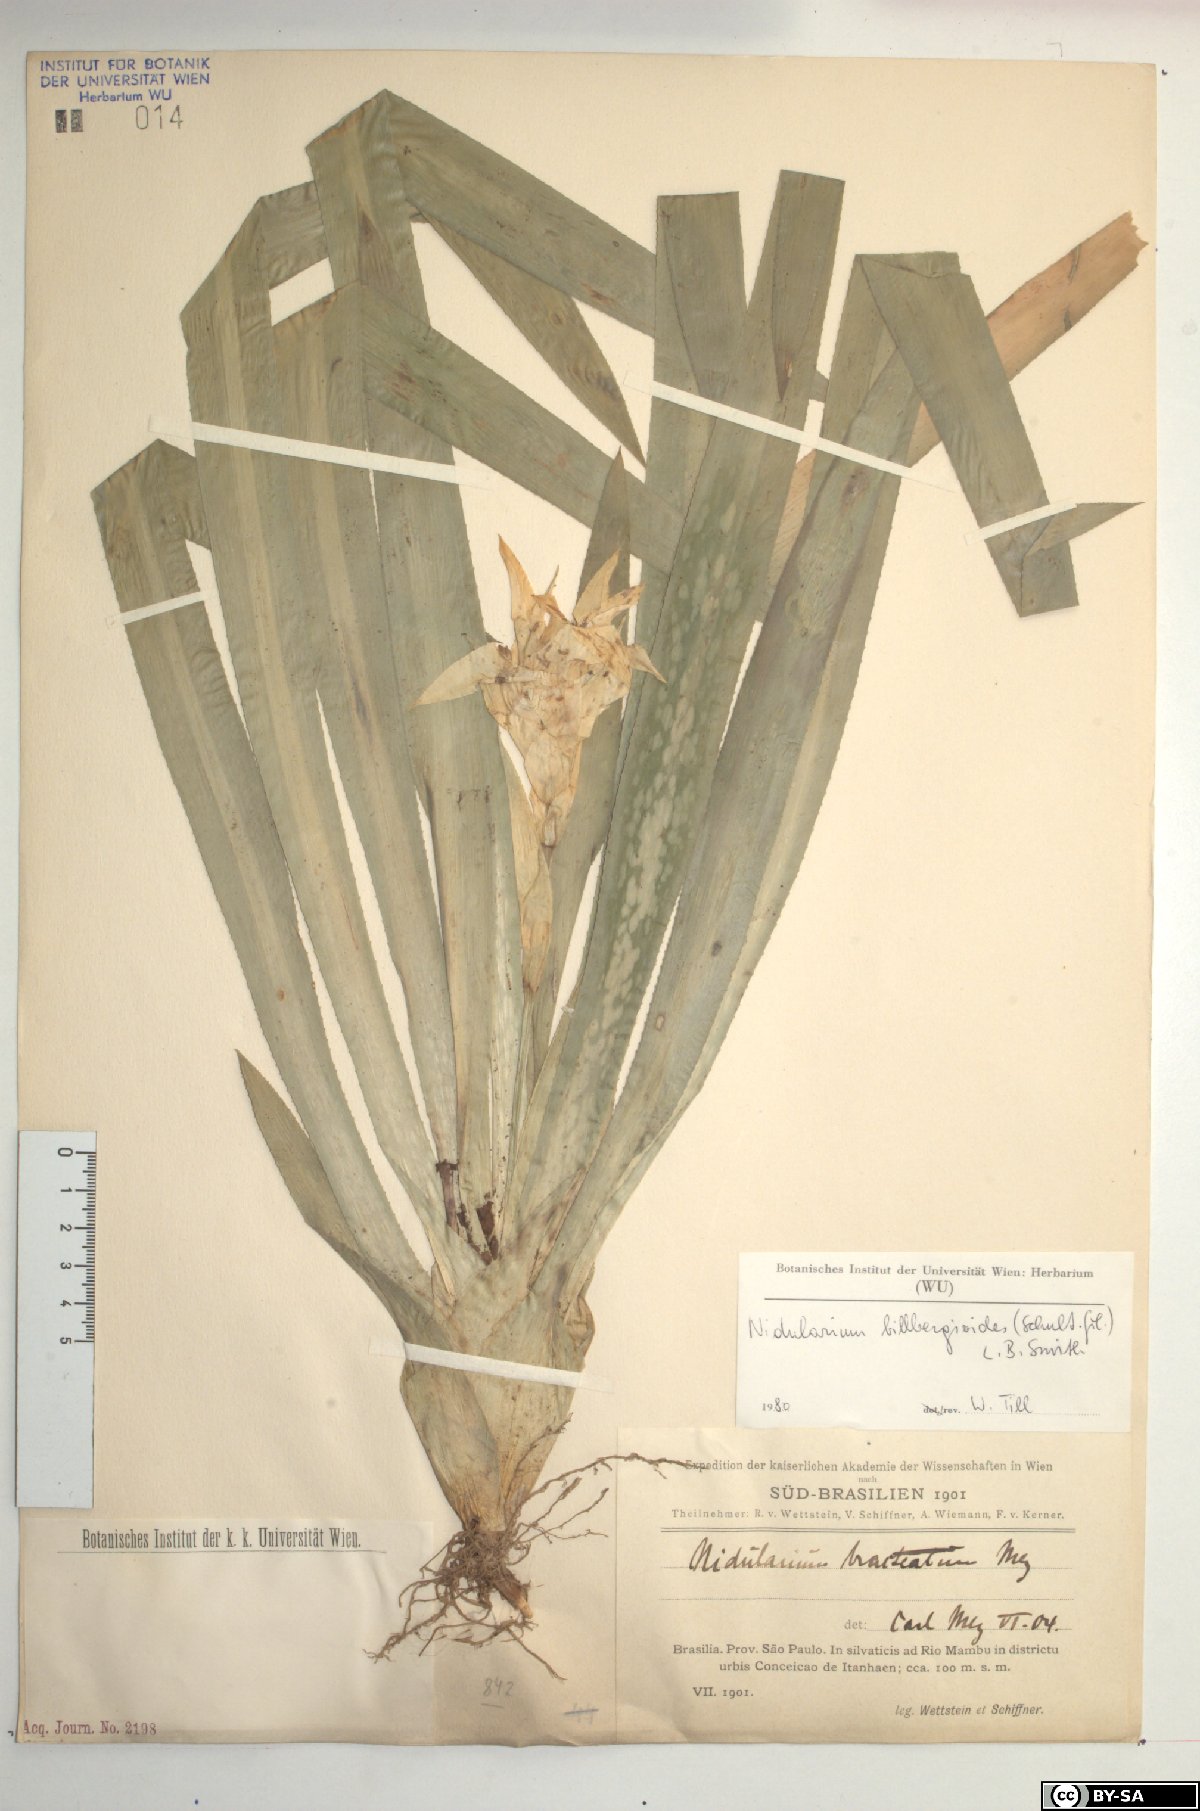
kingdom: Plantae
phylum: Tracheophyta
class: Liliopsida
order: Poales
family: Bromeliaceae
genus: Canistropsis
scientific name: Canistropsis billbergioides
